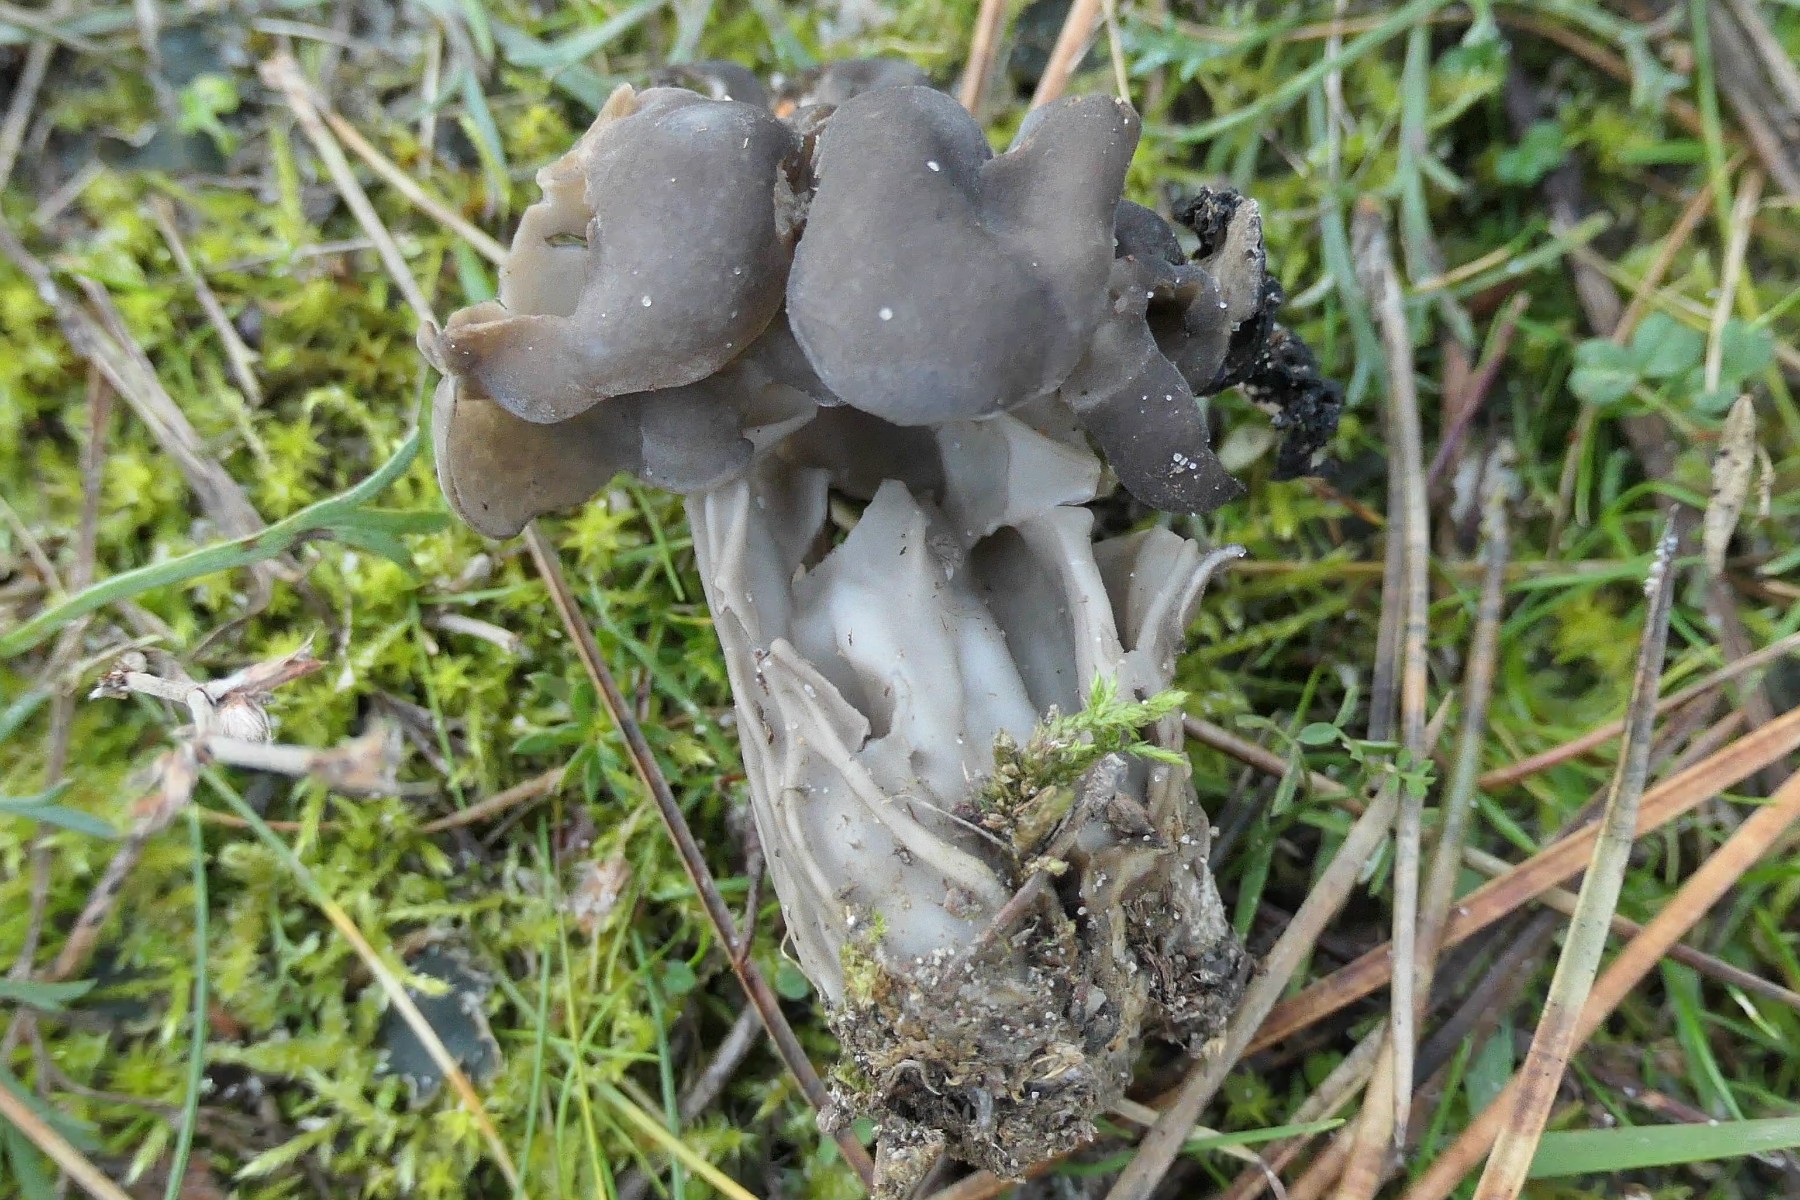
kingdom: Fungi
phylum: Ascomycota
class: Pezizomycetes
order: Pezizales
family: Helvellaceae
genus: Helvella
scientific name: Helvella lacunosa
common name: grubet foldhat
